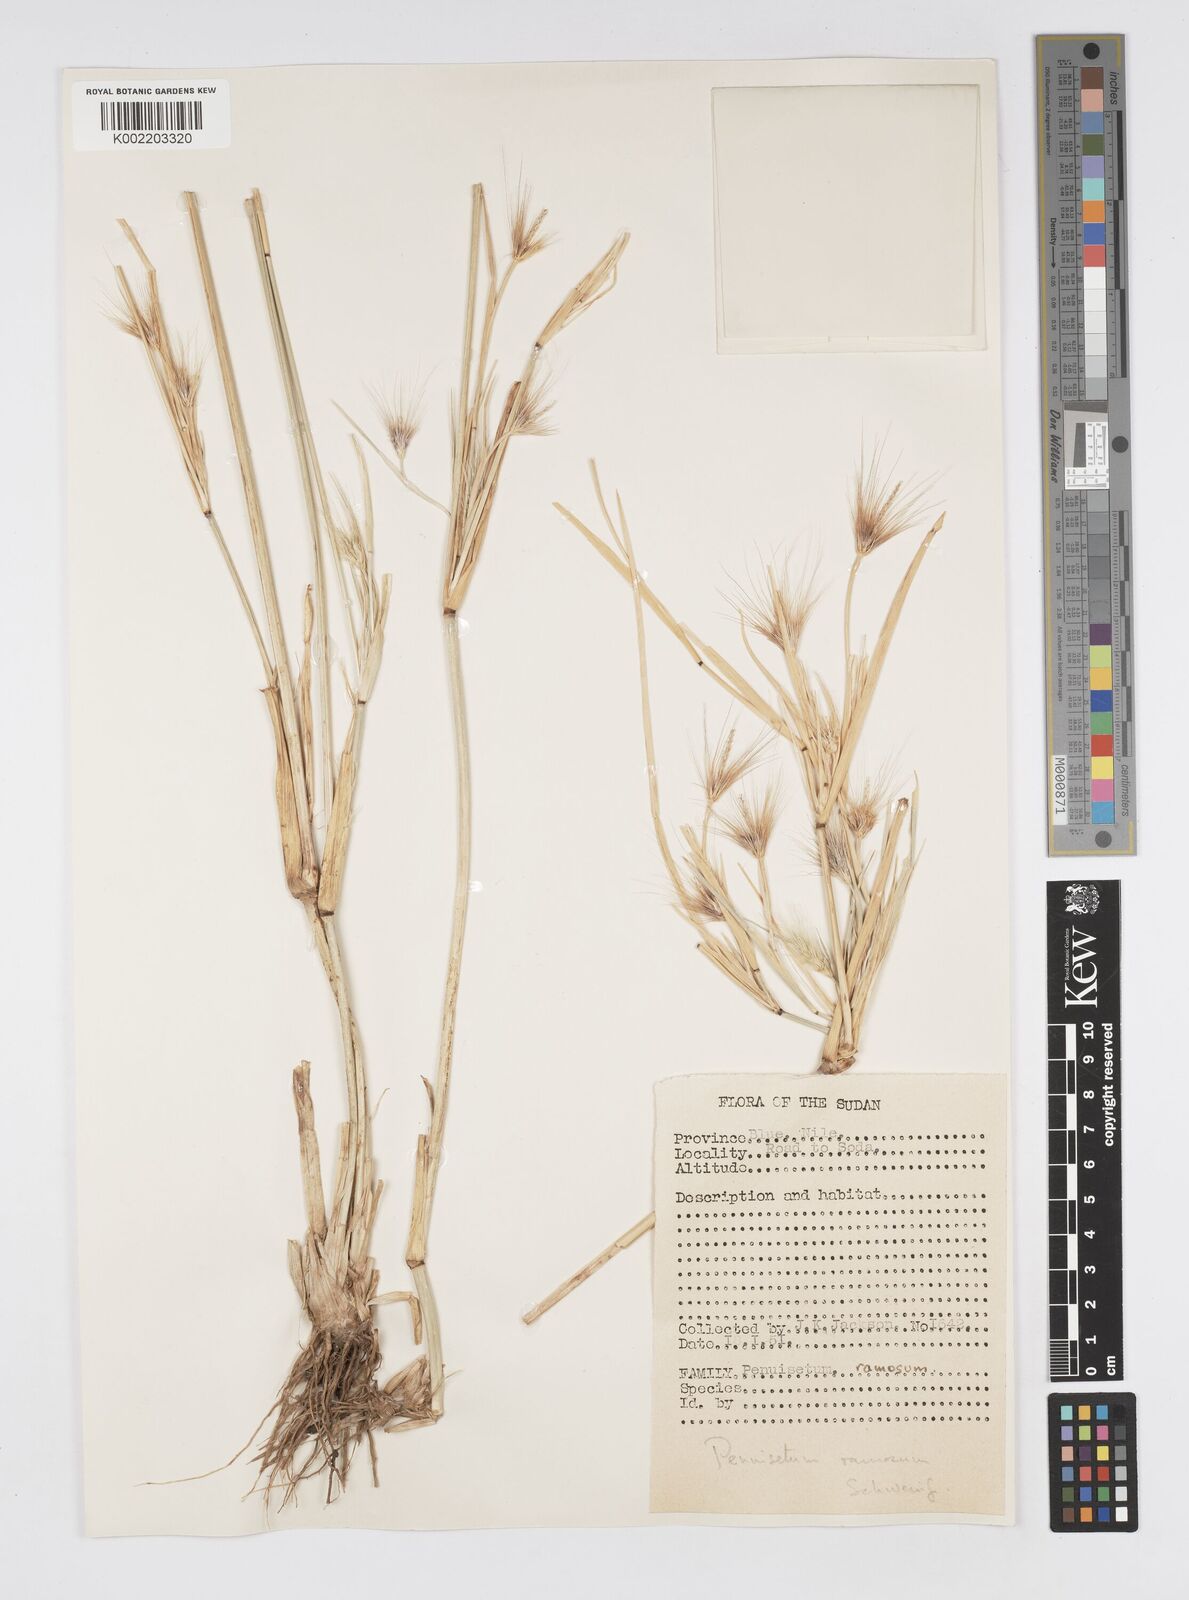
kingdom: Plantae
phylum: Tracheophyta
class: Liliopsida
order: Poales
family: Poaceae
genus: Cenchrus
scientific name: Cenchrus ramosus
